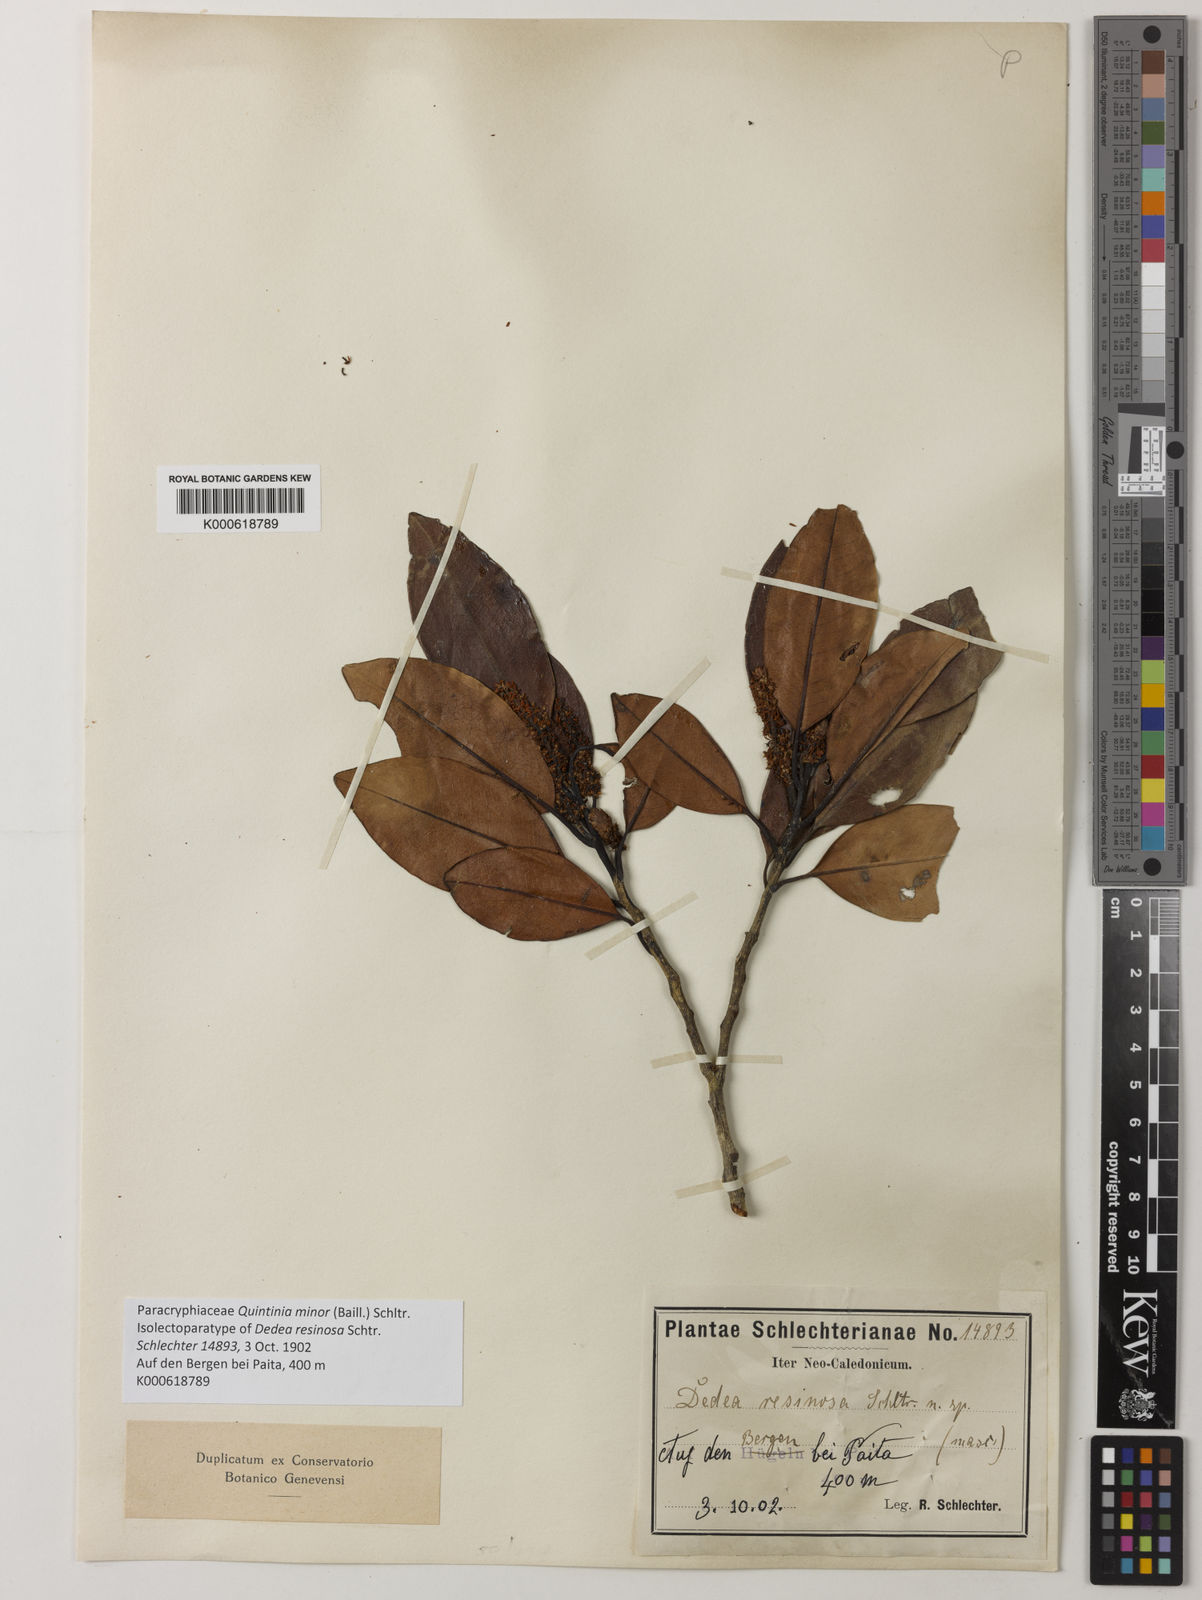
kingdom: Plantae
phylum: Tracheophyta
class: Magnoliopsida
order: Paracryphiales
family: Paracryphiaceae
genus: Quintinia
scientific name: Quintinia minor
